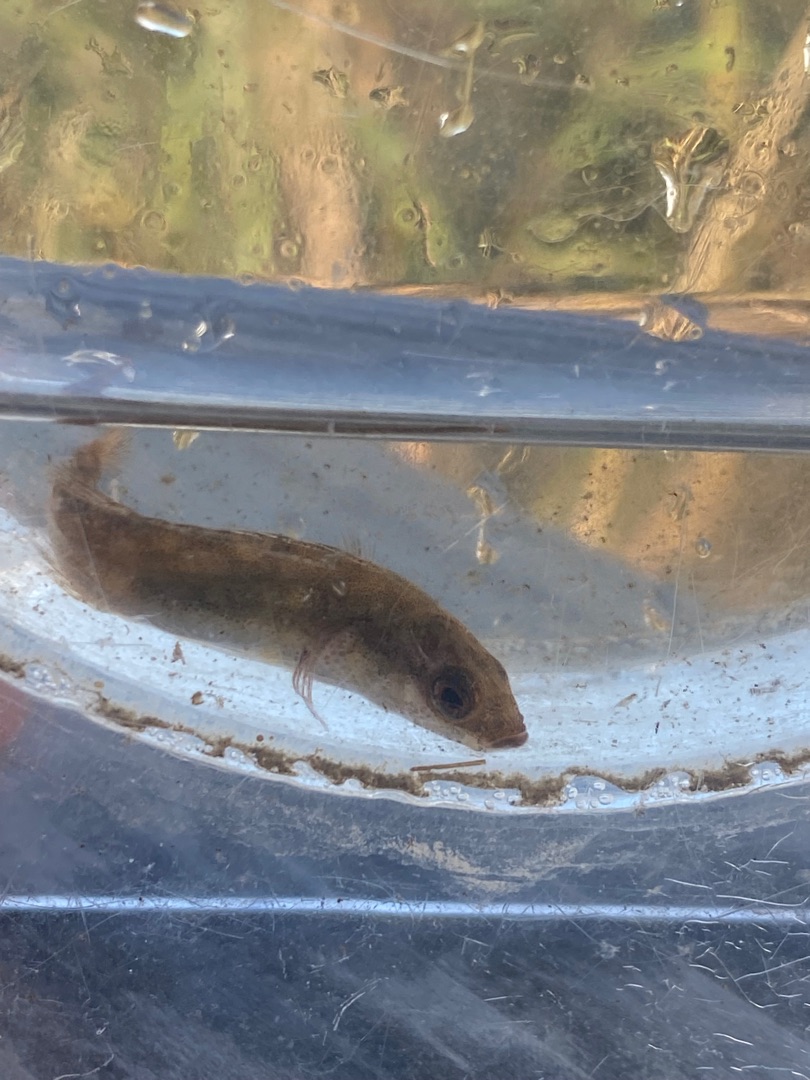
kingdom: Animalia
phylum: Chordata
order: Gasterosteiformes
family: Gasterosteidae
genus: Pungitius
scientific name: Pungitius pungitius
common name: Nipigget hundestejle
